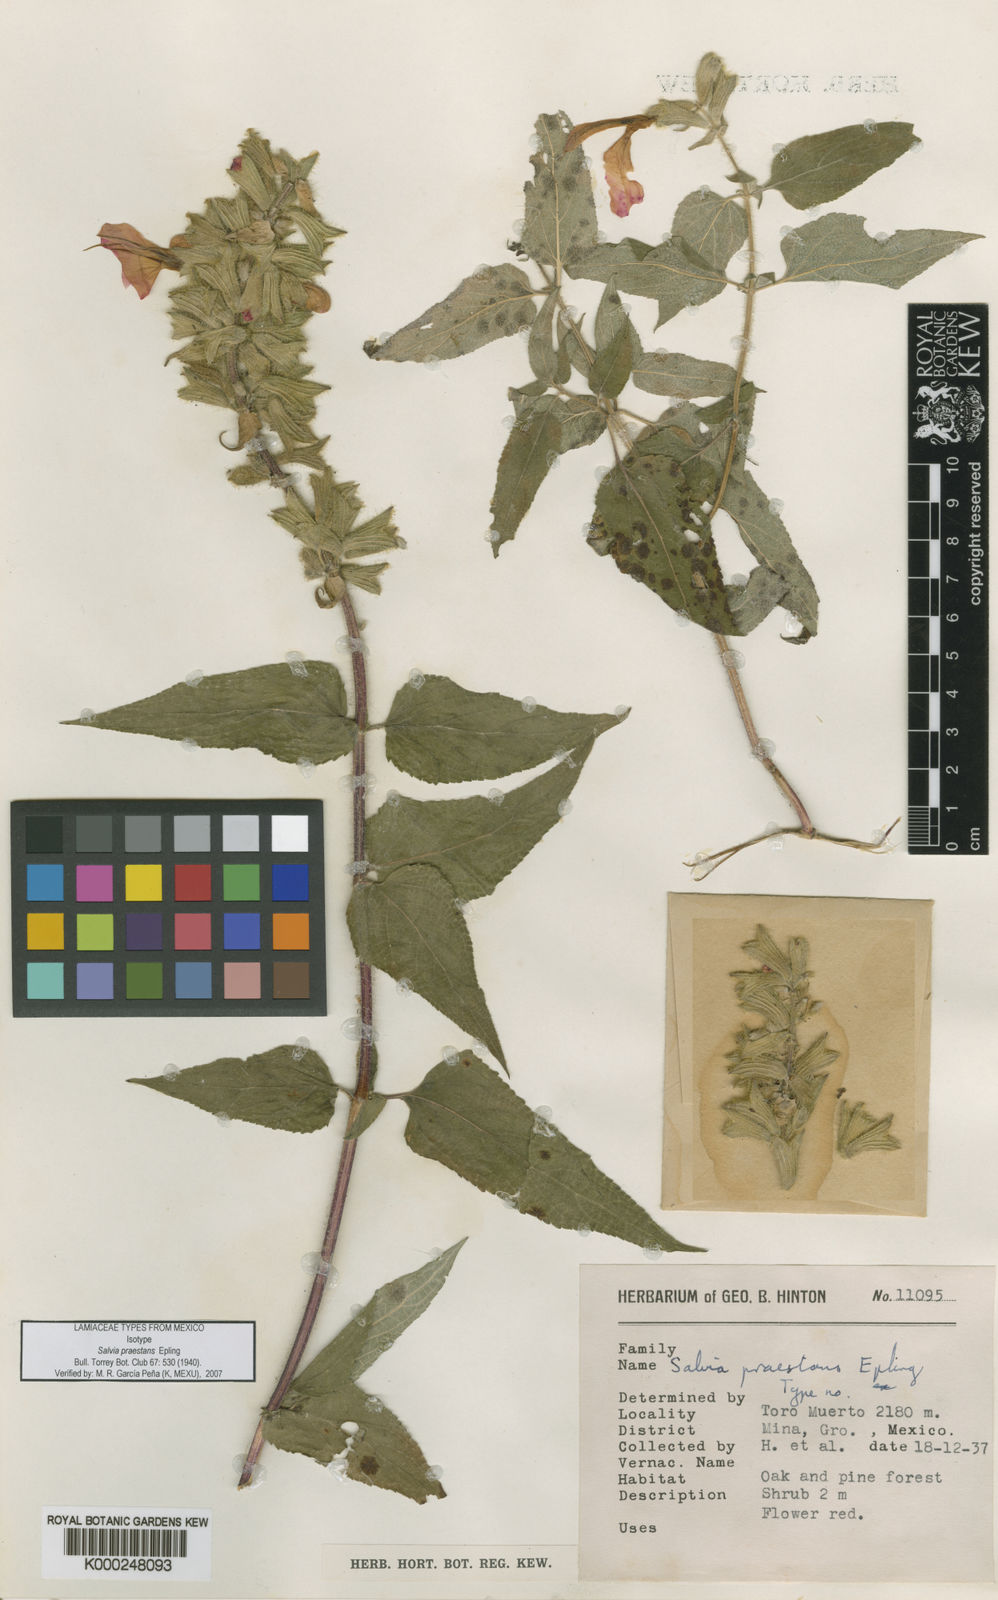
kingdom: Plantae
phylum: Tracheophyta
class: Magnoliopsida
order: Lamiales
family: Lamiaceae
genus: Salvia
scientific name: Salvia praestans
